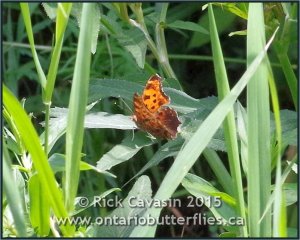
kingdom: Animalia
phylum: Arthropoda
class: Insecta
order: Lepidoptera
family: Nymphalidae
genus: Polygonia
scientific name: Polygonia comma
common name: Eastern Comma
